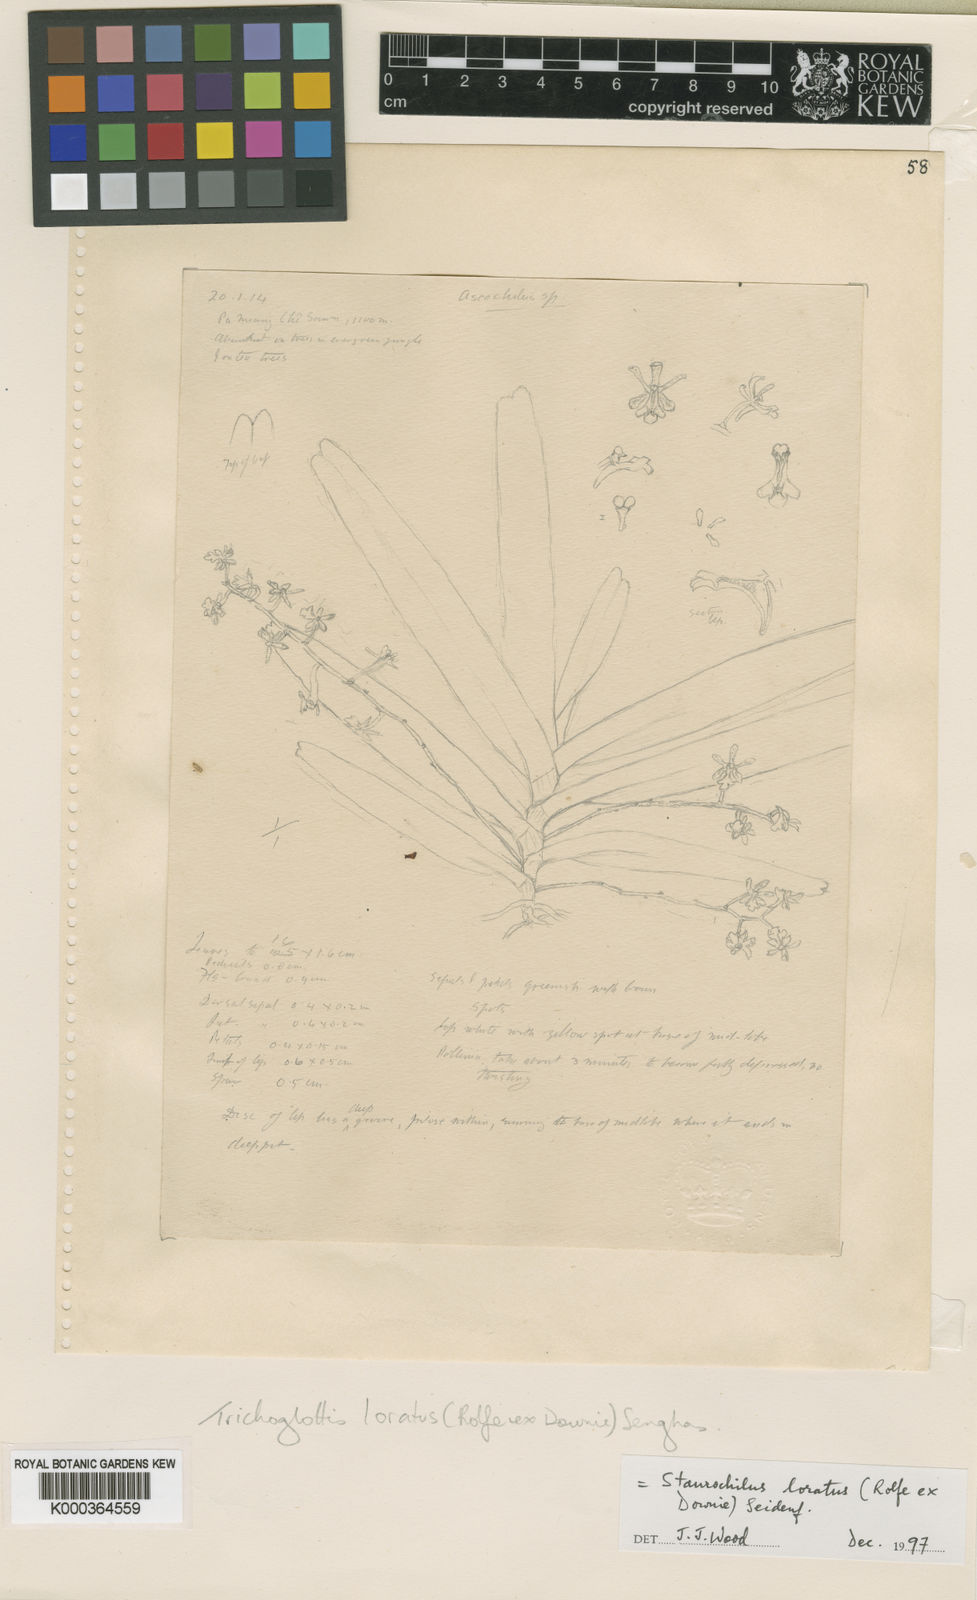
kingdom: Plantae
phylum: Tracheophyta
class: Liliopsida
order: Asparagales
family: Orchidaceae
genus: Trichoglottis
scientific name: Trichoglottis lorata
